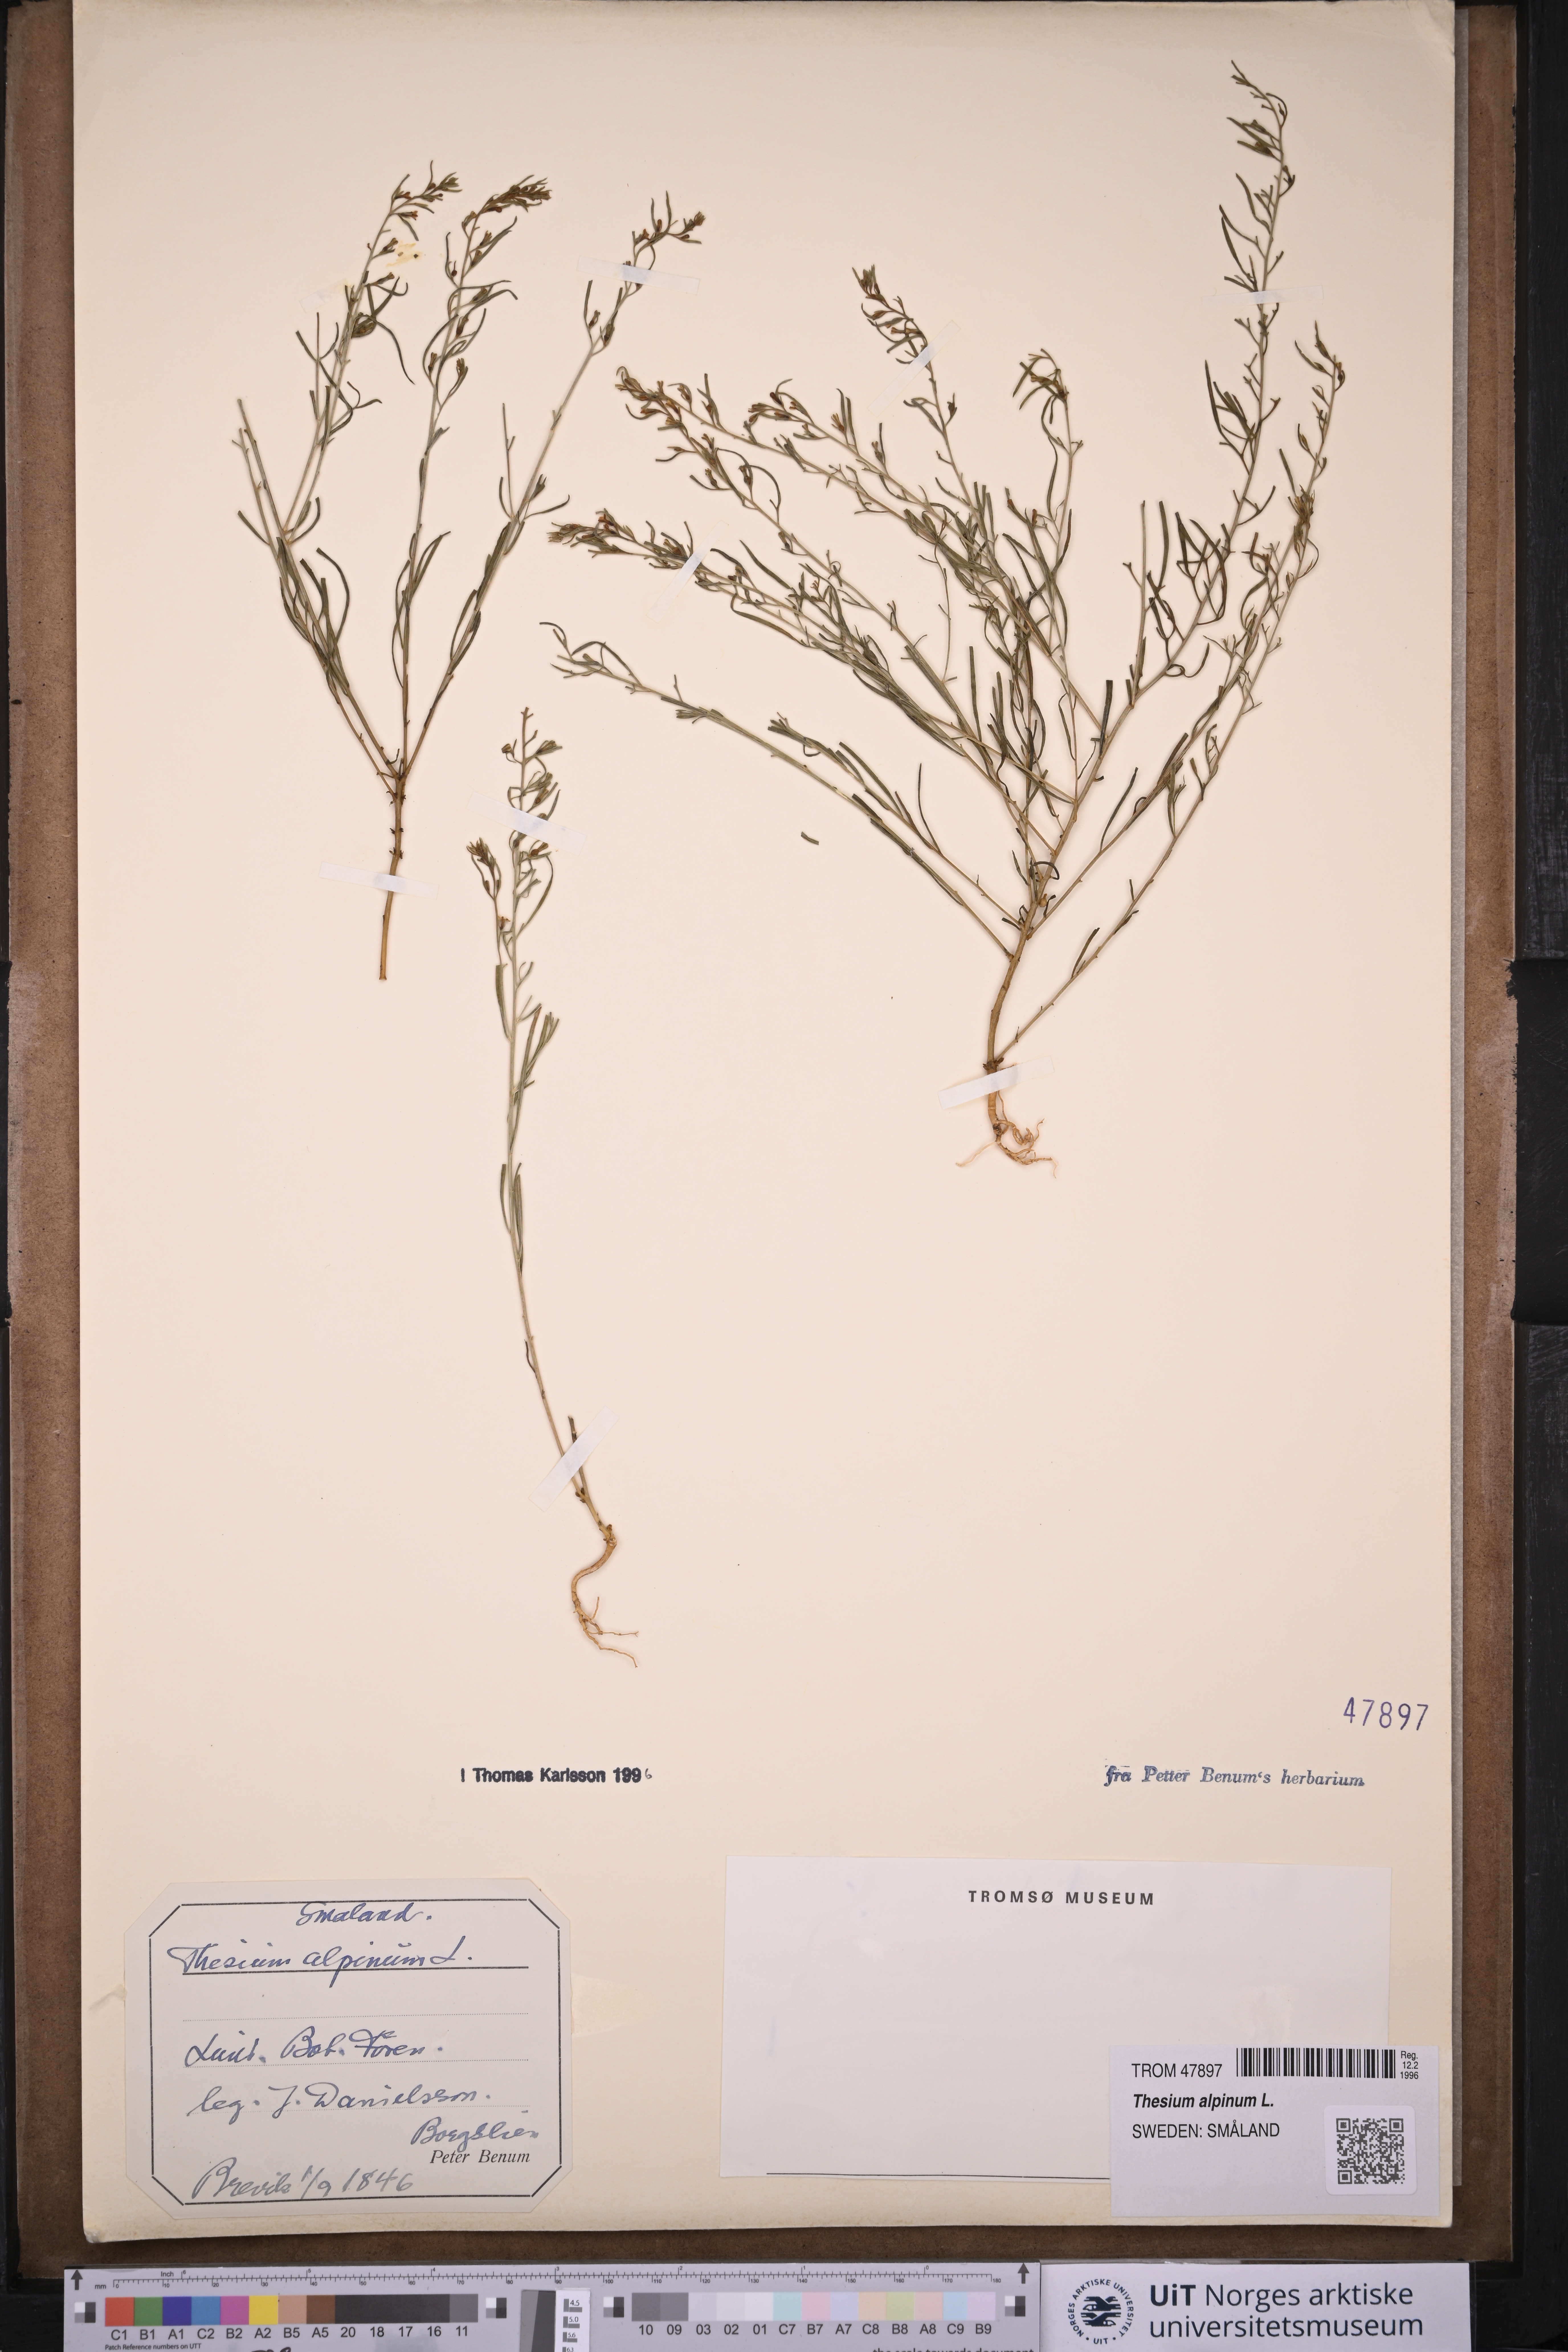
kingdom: Plantae
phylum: Tracheophyta
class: Magnoliopsida
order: Santalales
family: Thesiaceae
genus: Thesium
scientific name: Thesium alpinum
